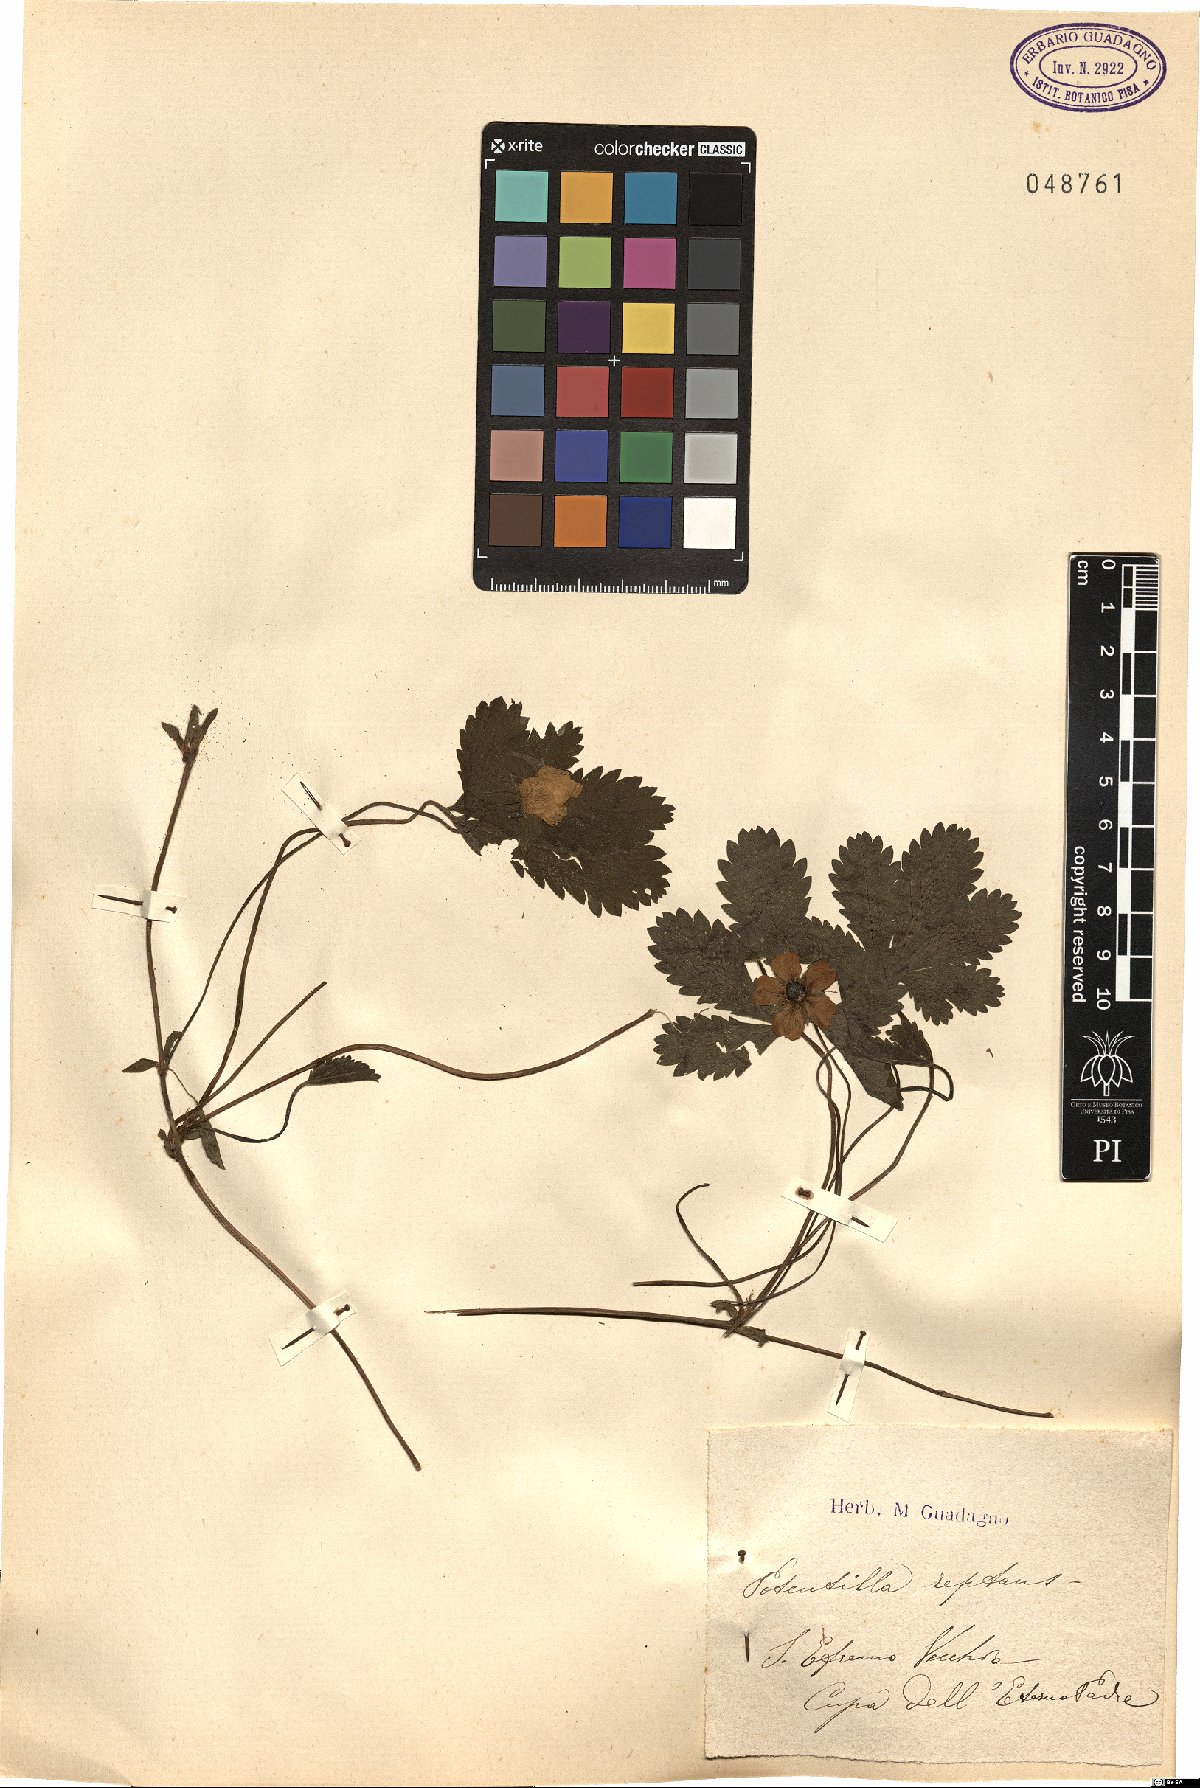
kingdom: Plantae
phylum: Tracheophyta
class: Magnoliopsida
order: Rosales
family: Rosaceae
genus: Potentilla
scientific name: Potentilla reptans
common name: Creeping cinquefoil
